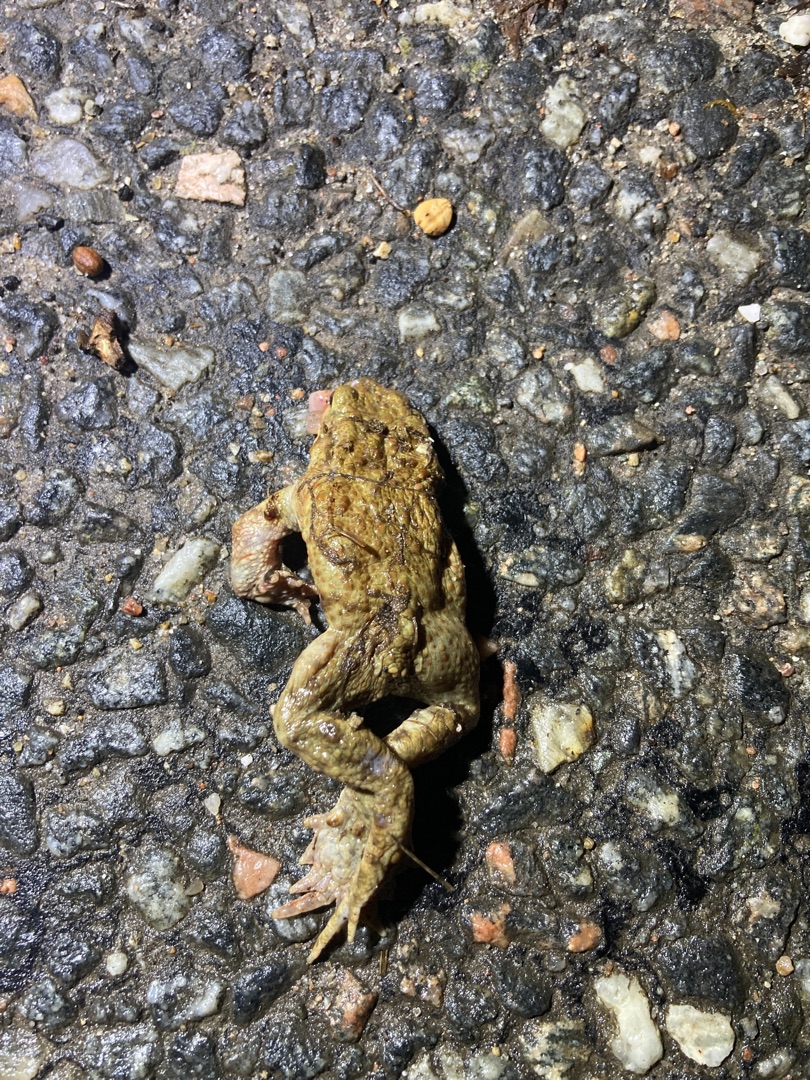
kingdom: Animalia
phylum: Chordata
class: Amphibia
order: Anura
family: Bufonidae
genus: Bufo
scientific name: Bufo bufo
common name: Skrubtudse
